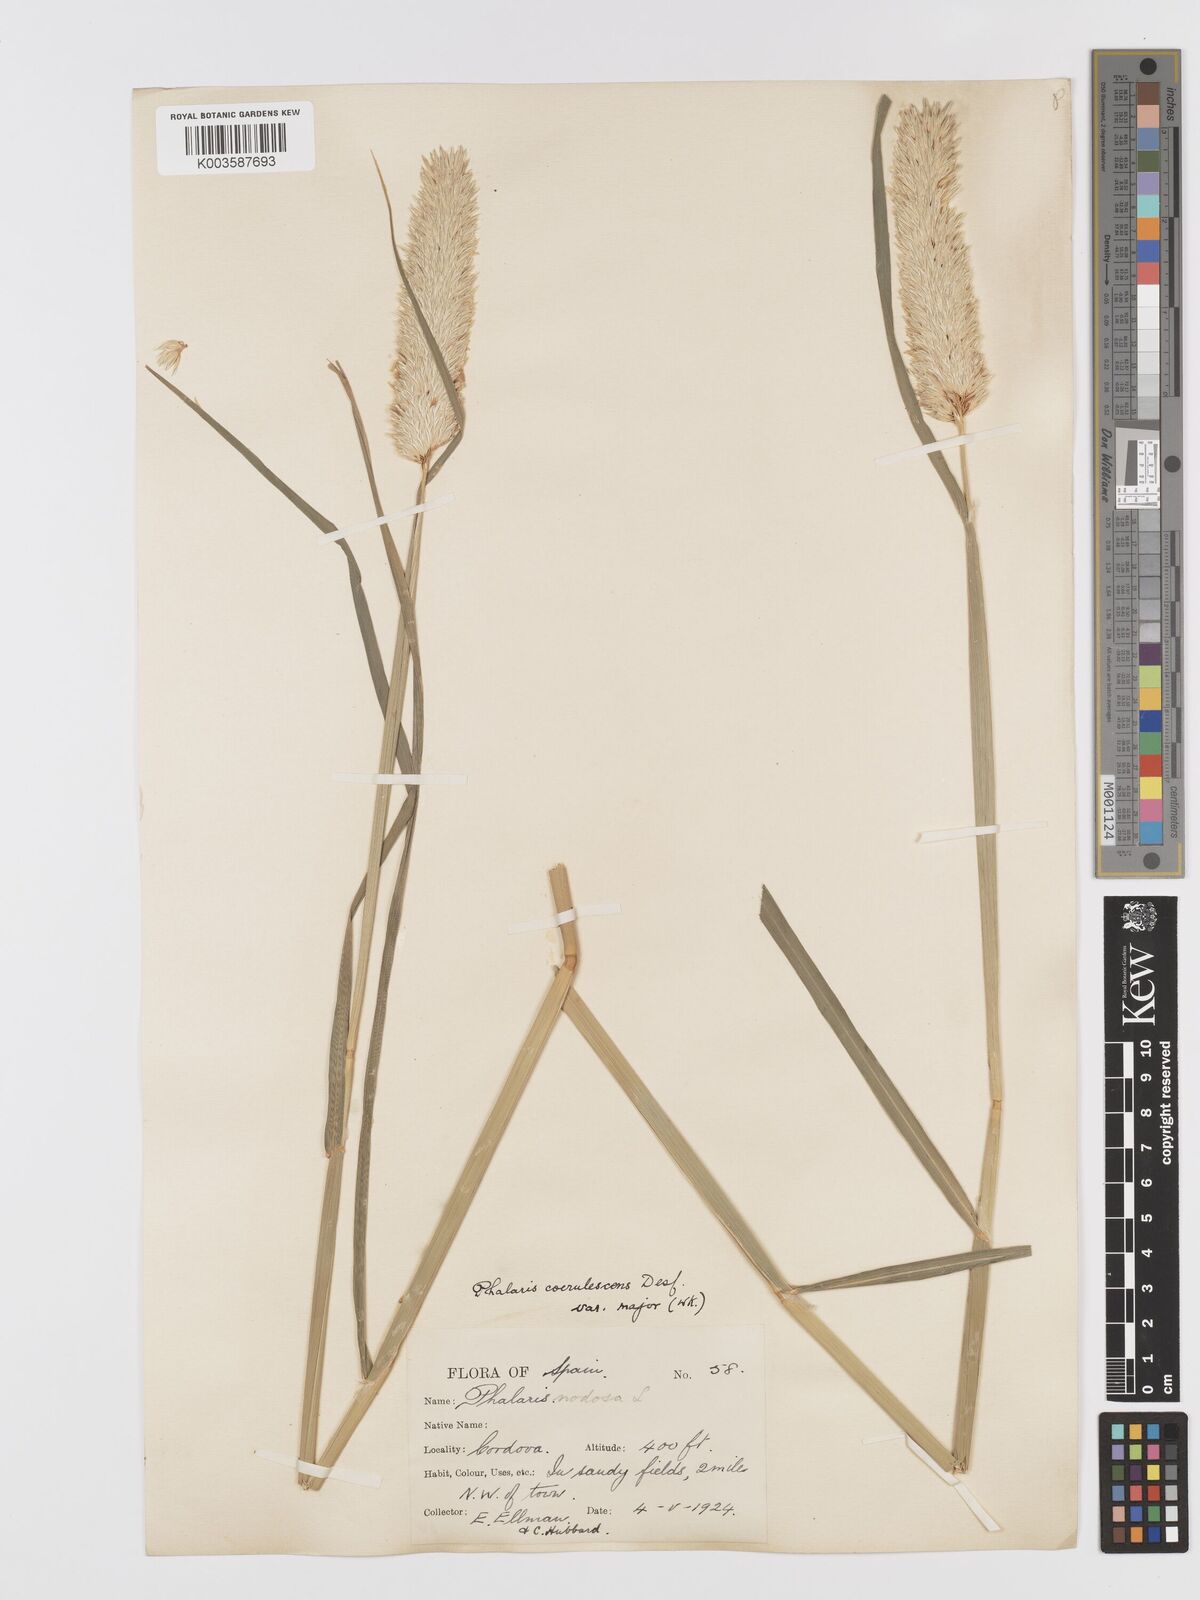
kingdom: Plantae
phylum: Tracheophyta
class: Liliopsida
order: Poales
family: Poaceae
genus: Phalaris
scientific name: Phalaris coerulescens
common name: Sunolgrass
